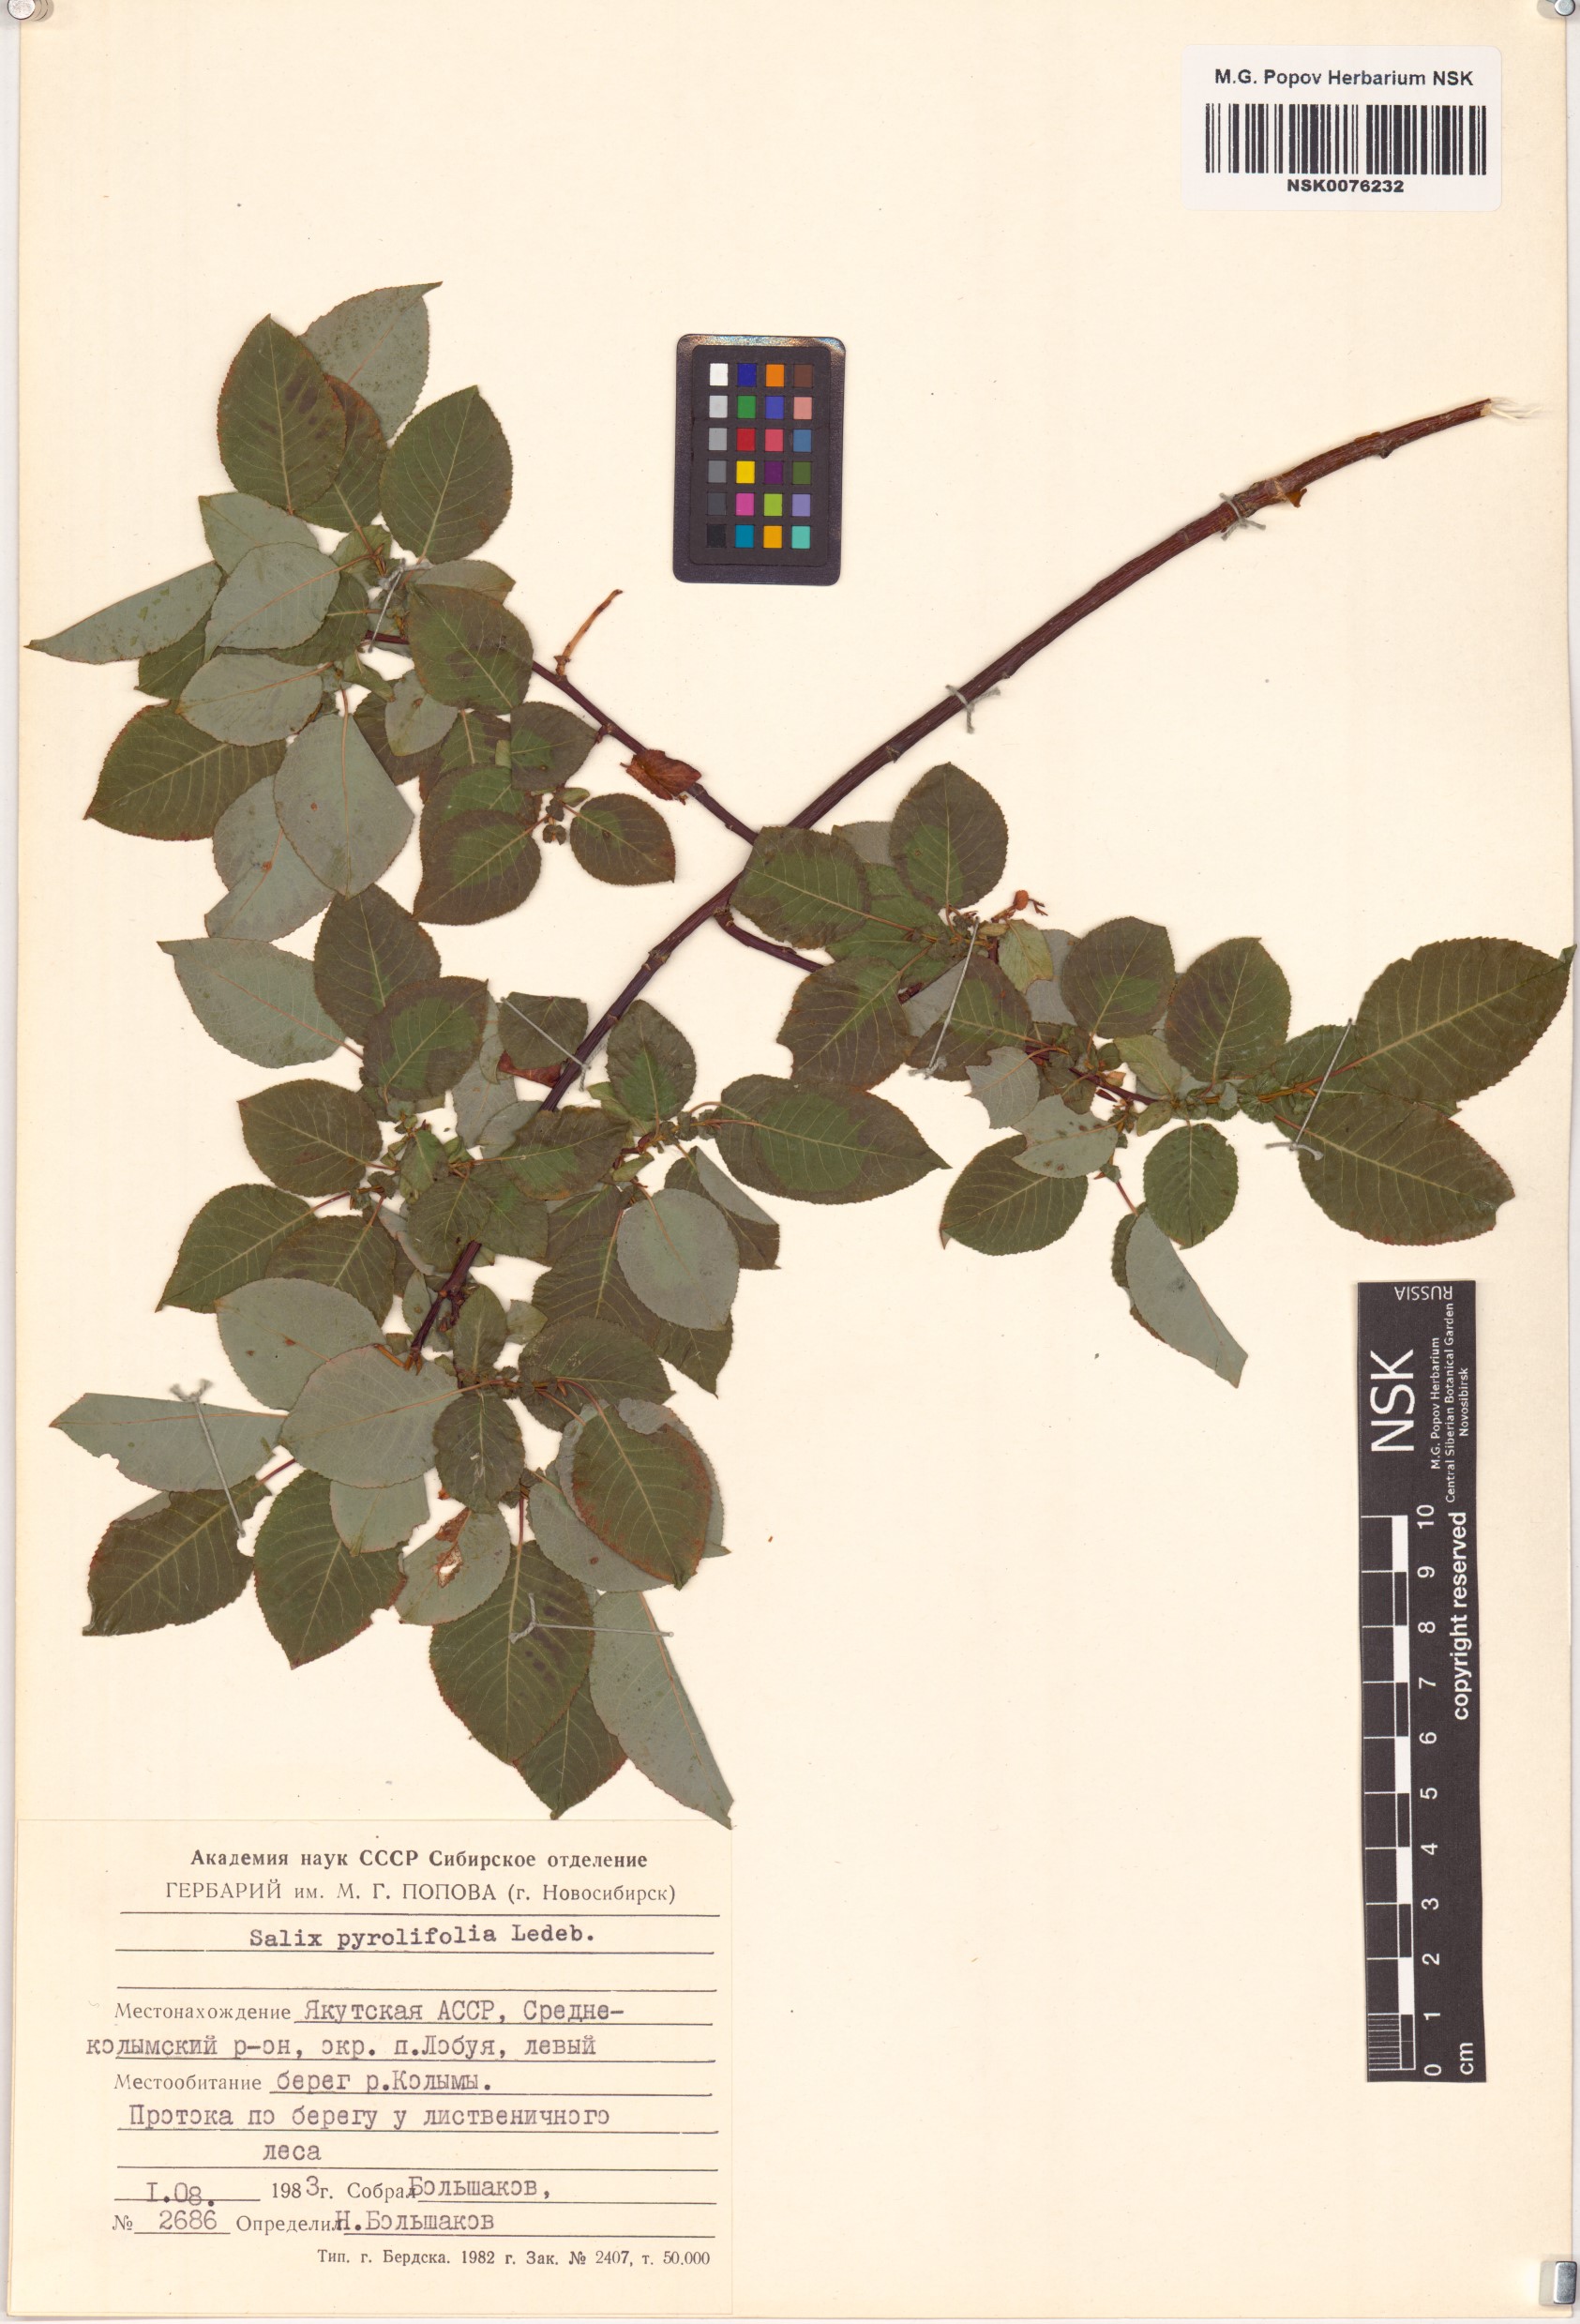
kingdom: Plantae
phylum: Tracheophyta
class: Magnoliopsida
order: Malpighiales
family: Salicaceae
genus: Salix
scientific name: Salix pyrolifolia
